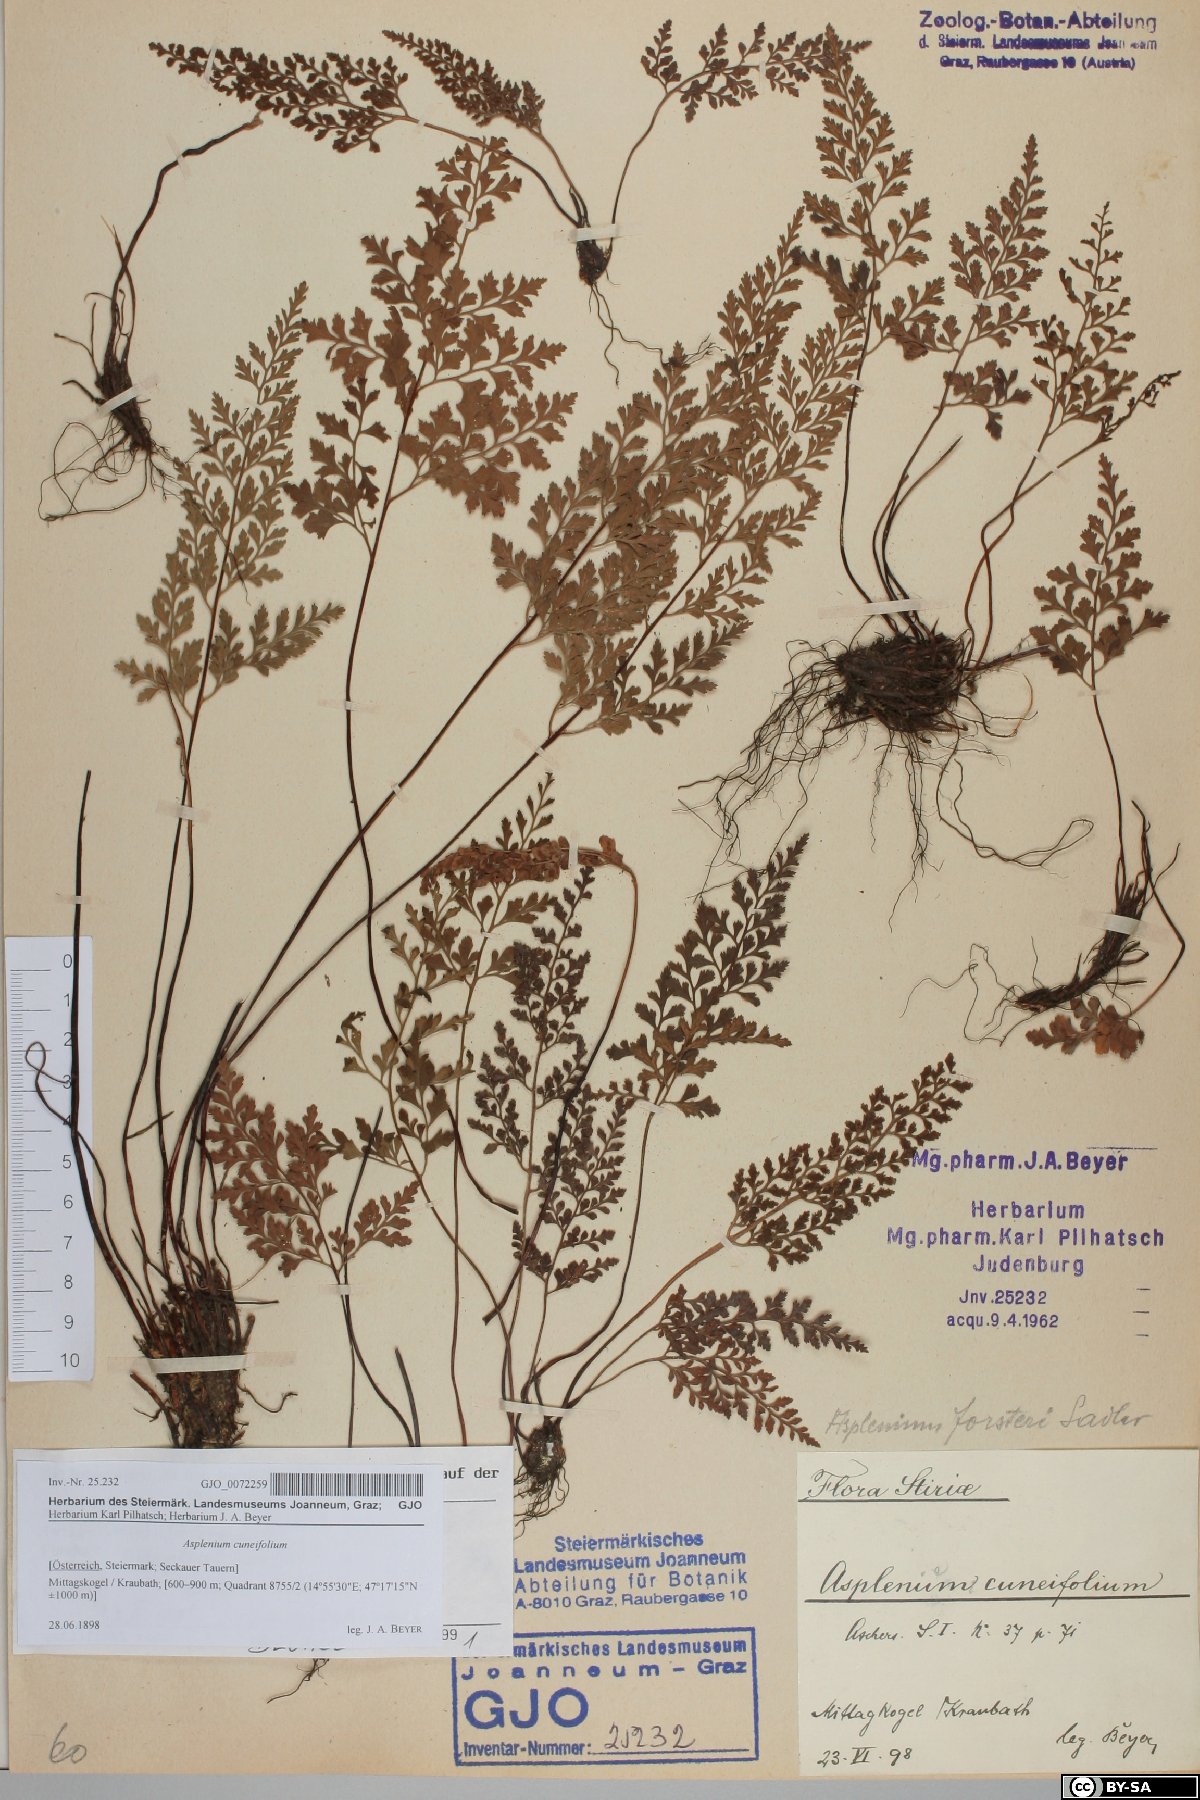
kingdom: Plantae
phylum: Tracheophyta
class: Polypodiopsida
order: Polypodiales
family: Aspleniaceae
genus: Asplenium
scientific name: Asplenium cuneifolium
